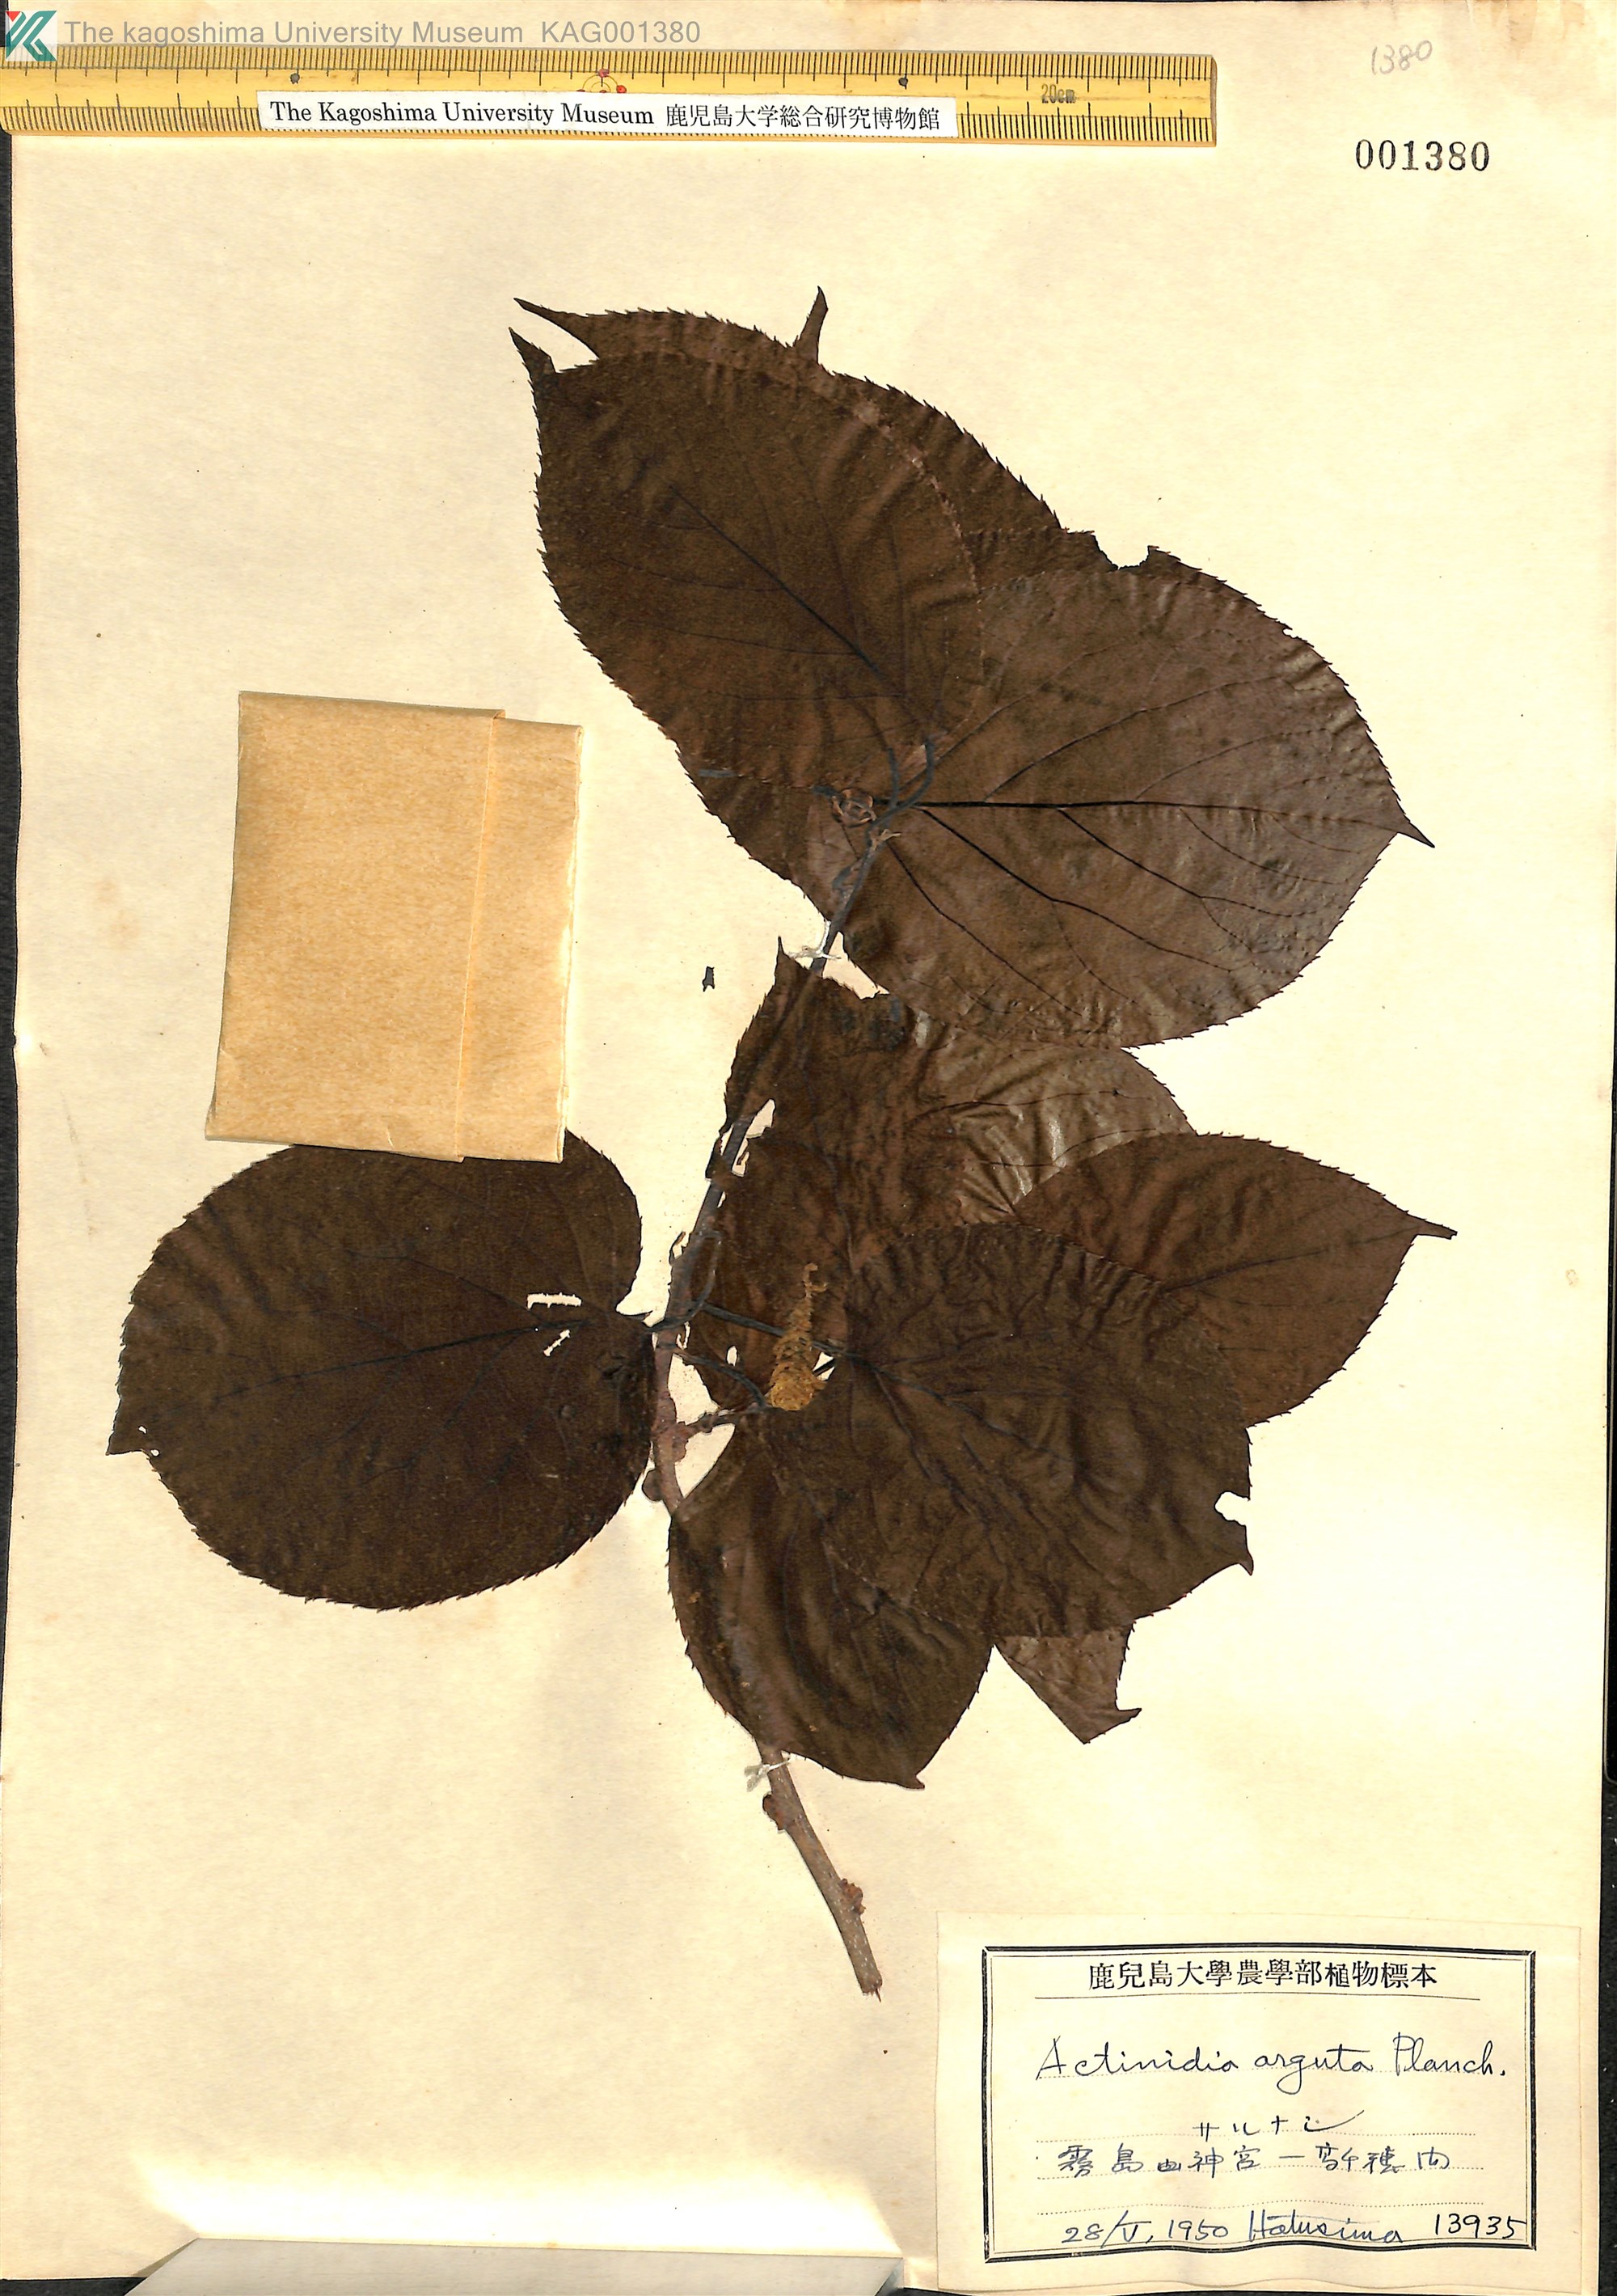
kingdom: Plantae
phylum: Tracheophyta
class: Magnoliopsida
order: Ericales
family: Actinidiaceae
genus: Actinidia
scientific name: Actinidia arguta
